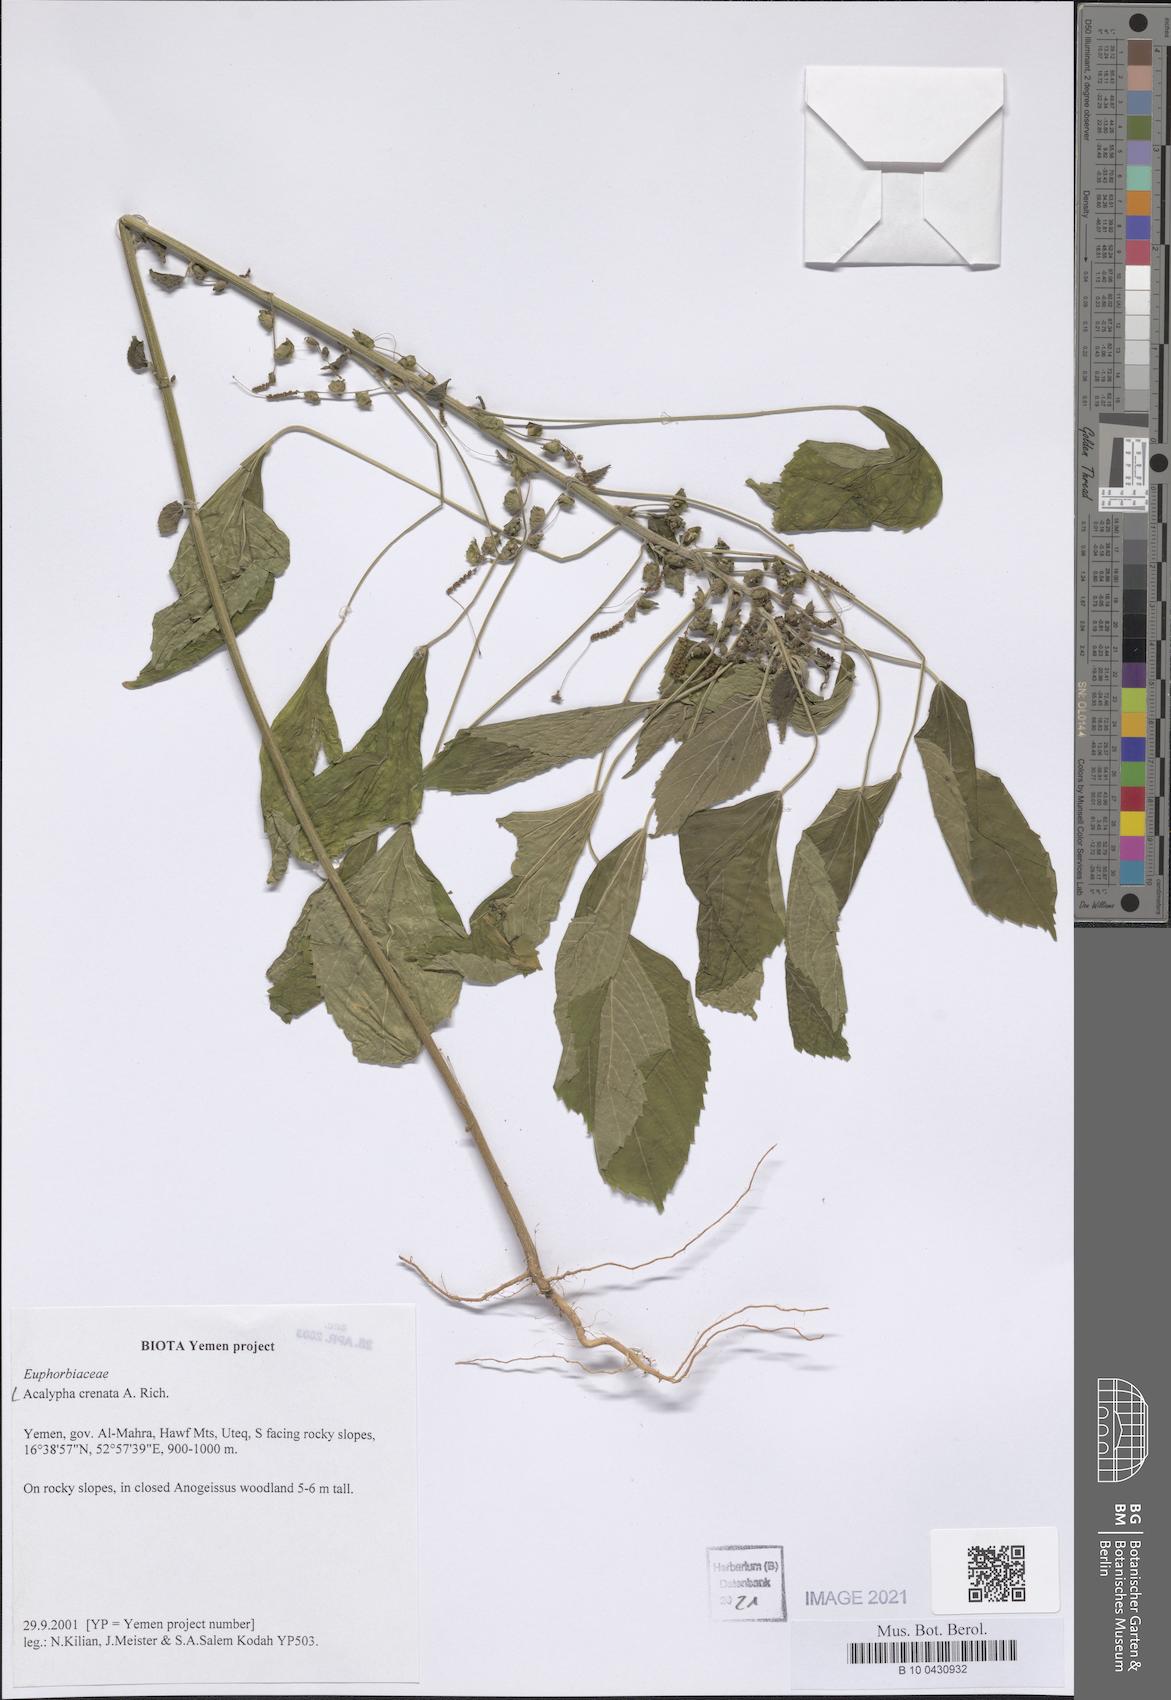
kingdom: Plantae
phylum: Tracheophyta
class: Magnoliopsida
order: Malpighiales
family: Euphorbiaceae
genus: Acalypha
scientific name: Acalypha crenata
